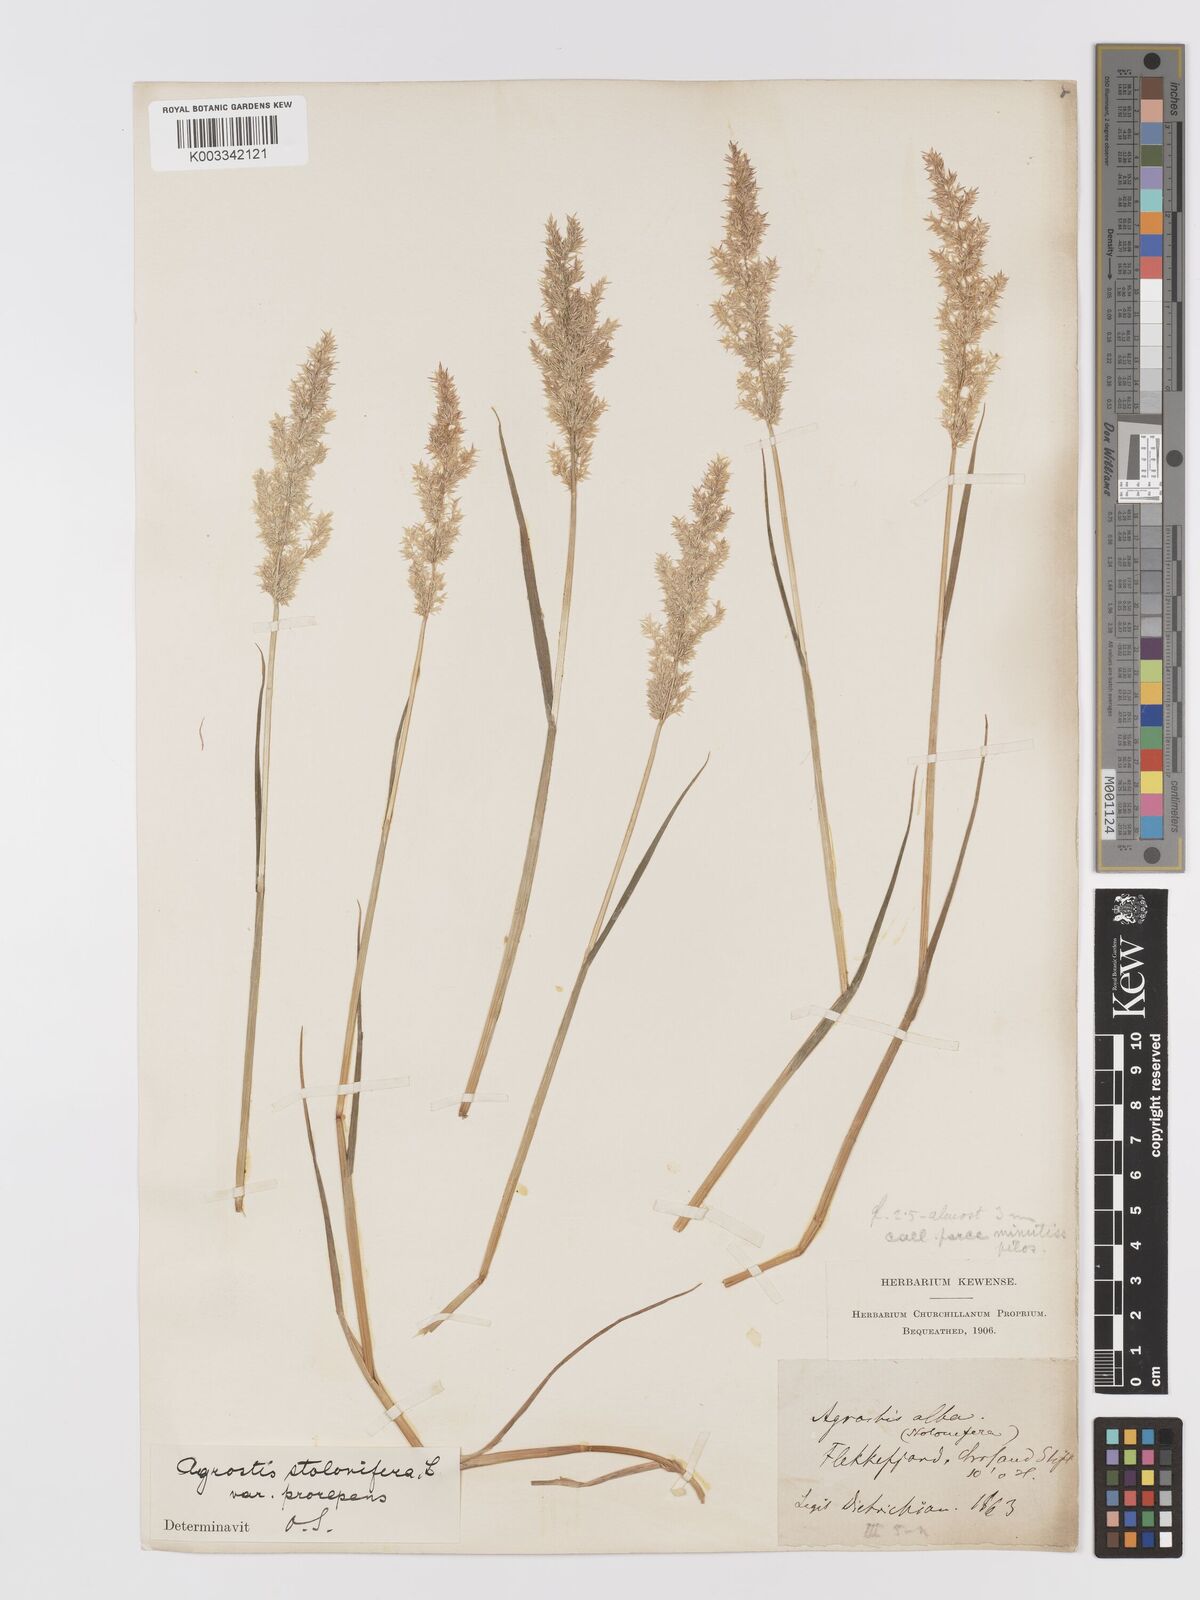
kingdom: Plantae
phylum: Tracheophyta
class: Liliopsida
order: Poales
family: Poaceae
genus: Agrostis
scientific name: Agrostis stolonifera
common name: Creeping bentgrass
